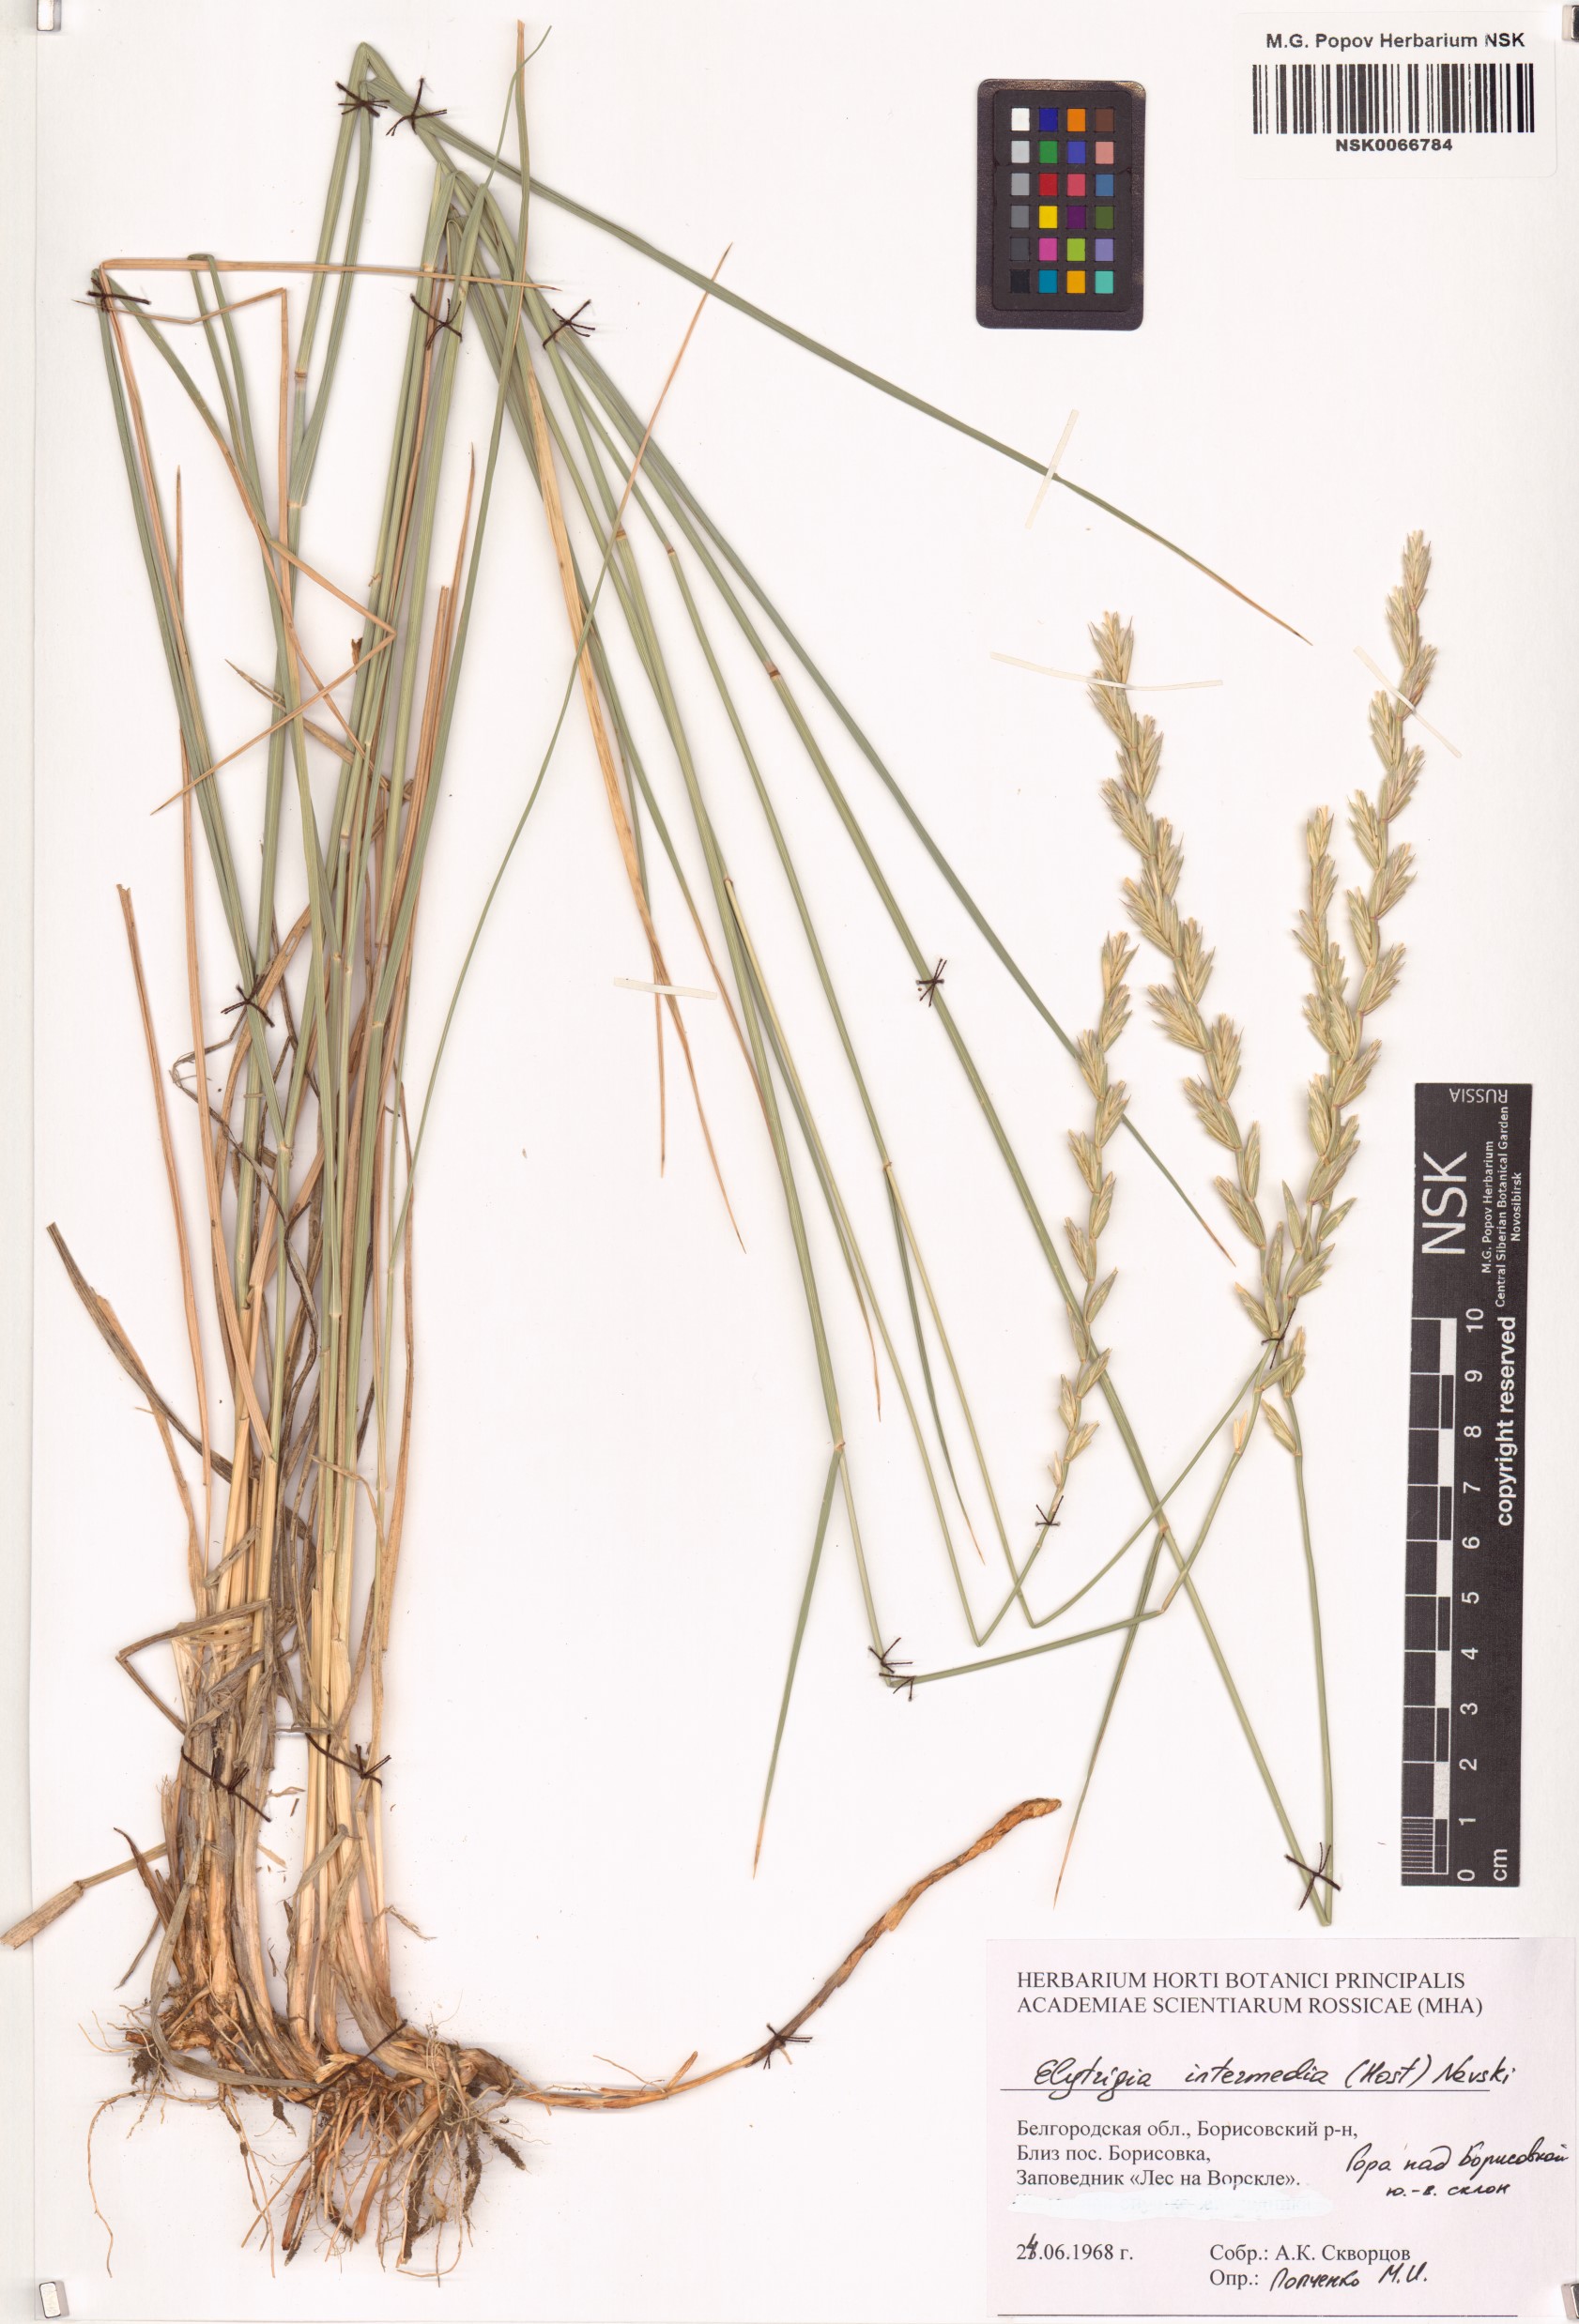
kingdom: Plantae
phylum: Tracheophyta
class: Liliopsida
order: Poales
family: Poaceae
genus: Thinopyrum
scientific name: Thinopyrum intermedium
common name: Intermediate wheatgrass
